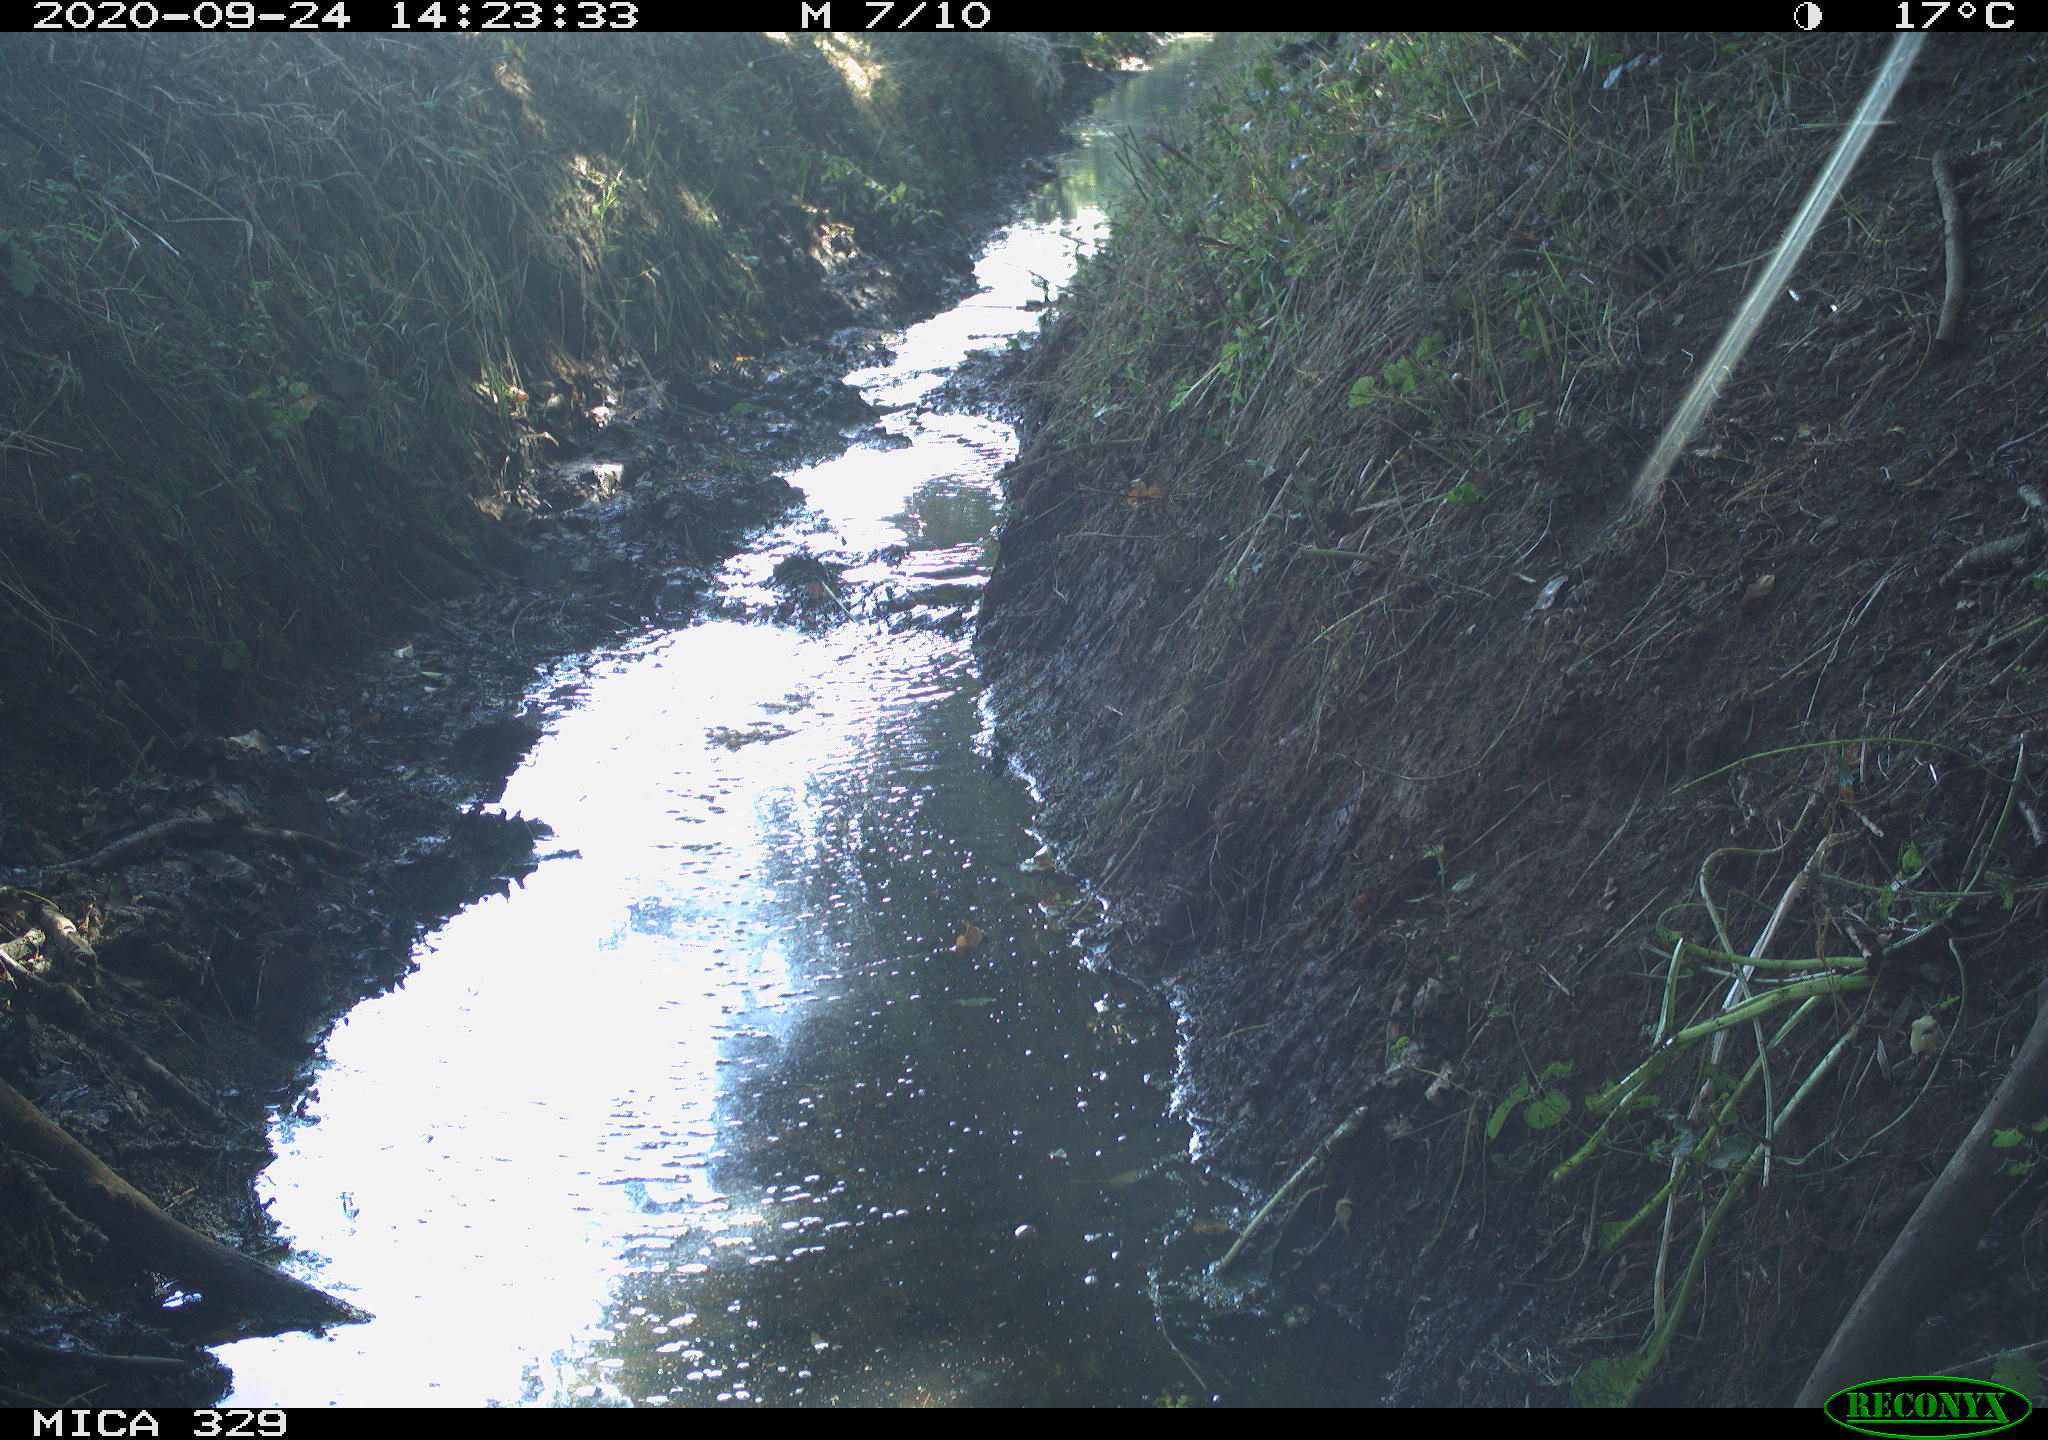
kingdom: Animalia
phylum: Chordata
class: Aves
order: Coraciiformes
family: Alcedinidae
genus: Alcedo
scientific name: Alcedo atthis
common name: Common kingfisher
